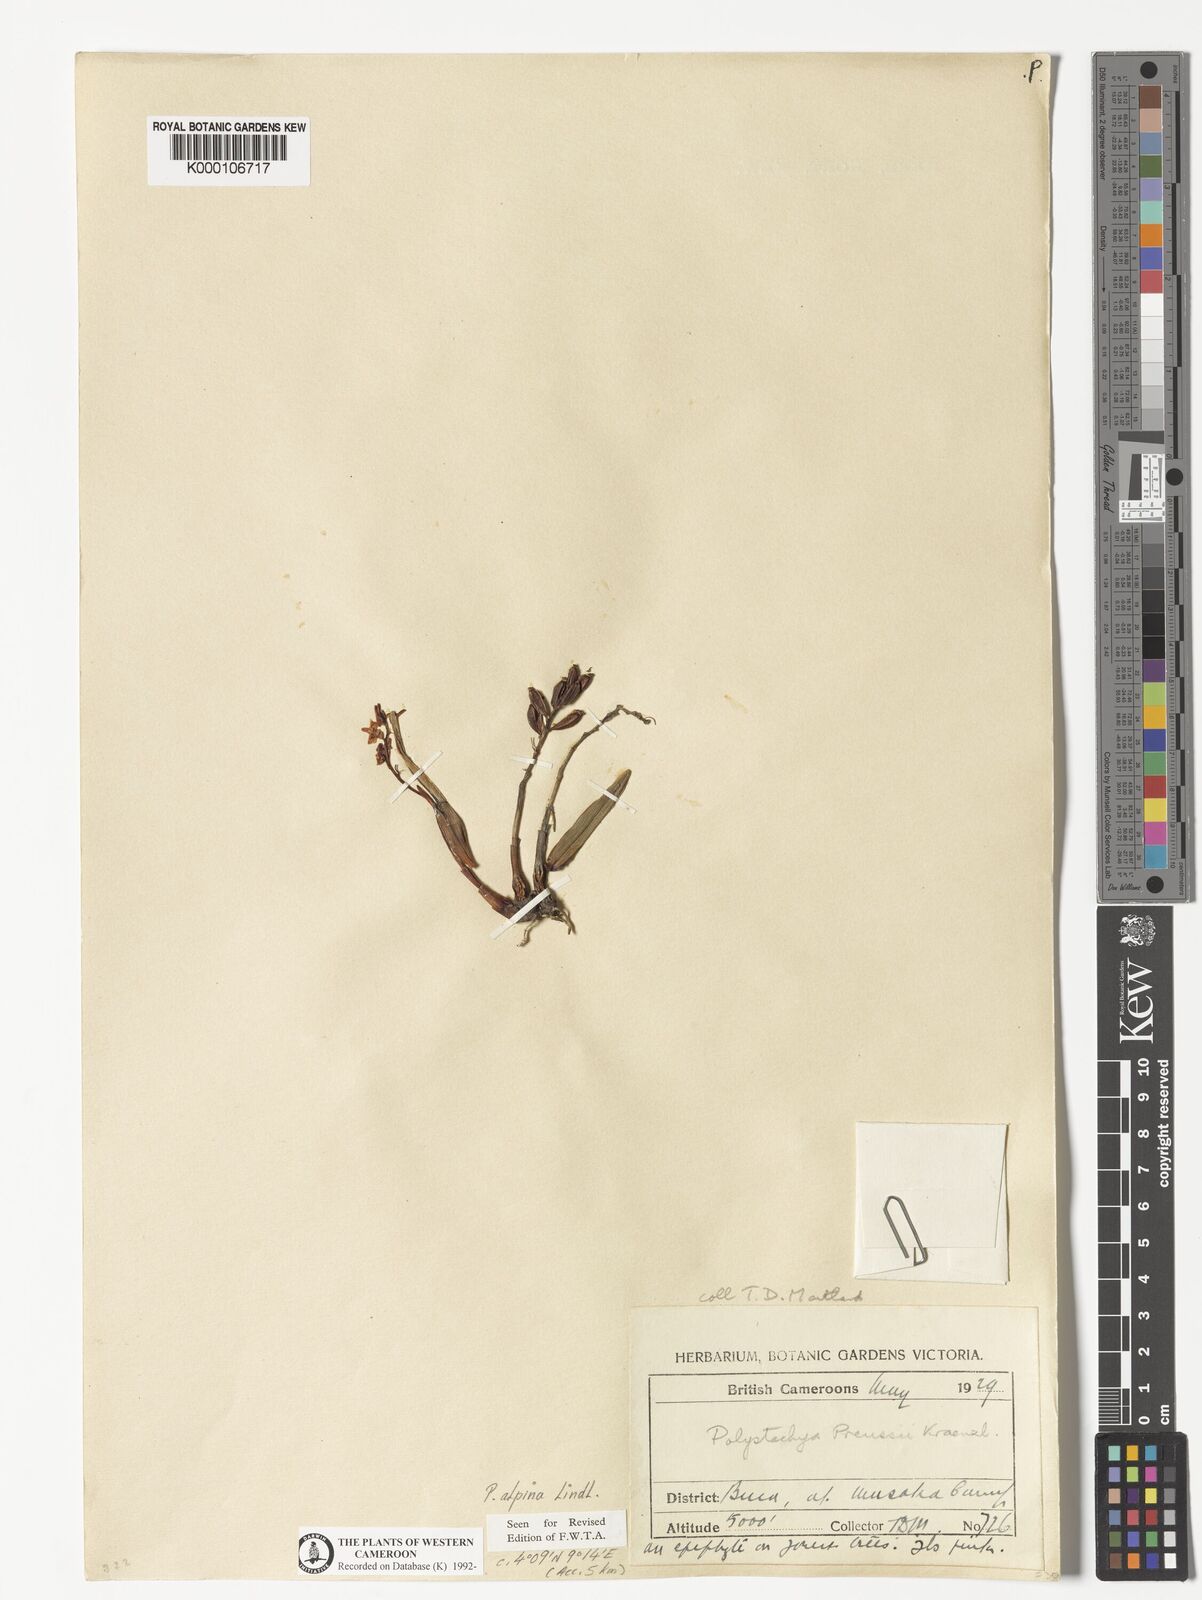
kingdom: Plantae
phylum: Tracheophyta
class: Liliopsida
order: Asparagales
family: Orchidaceae
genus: Polystachya
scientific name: Polystachya alpina
